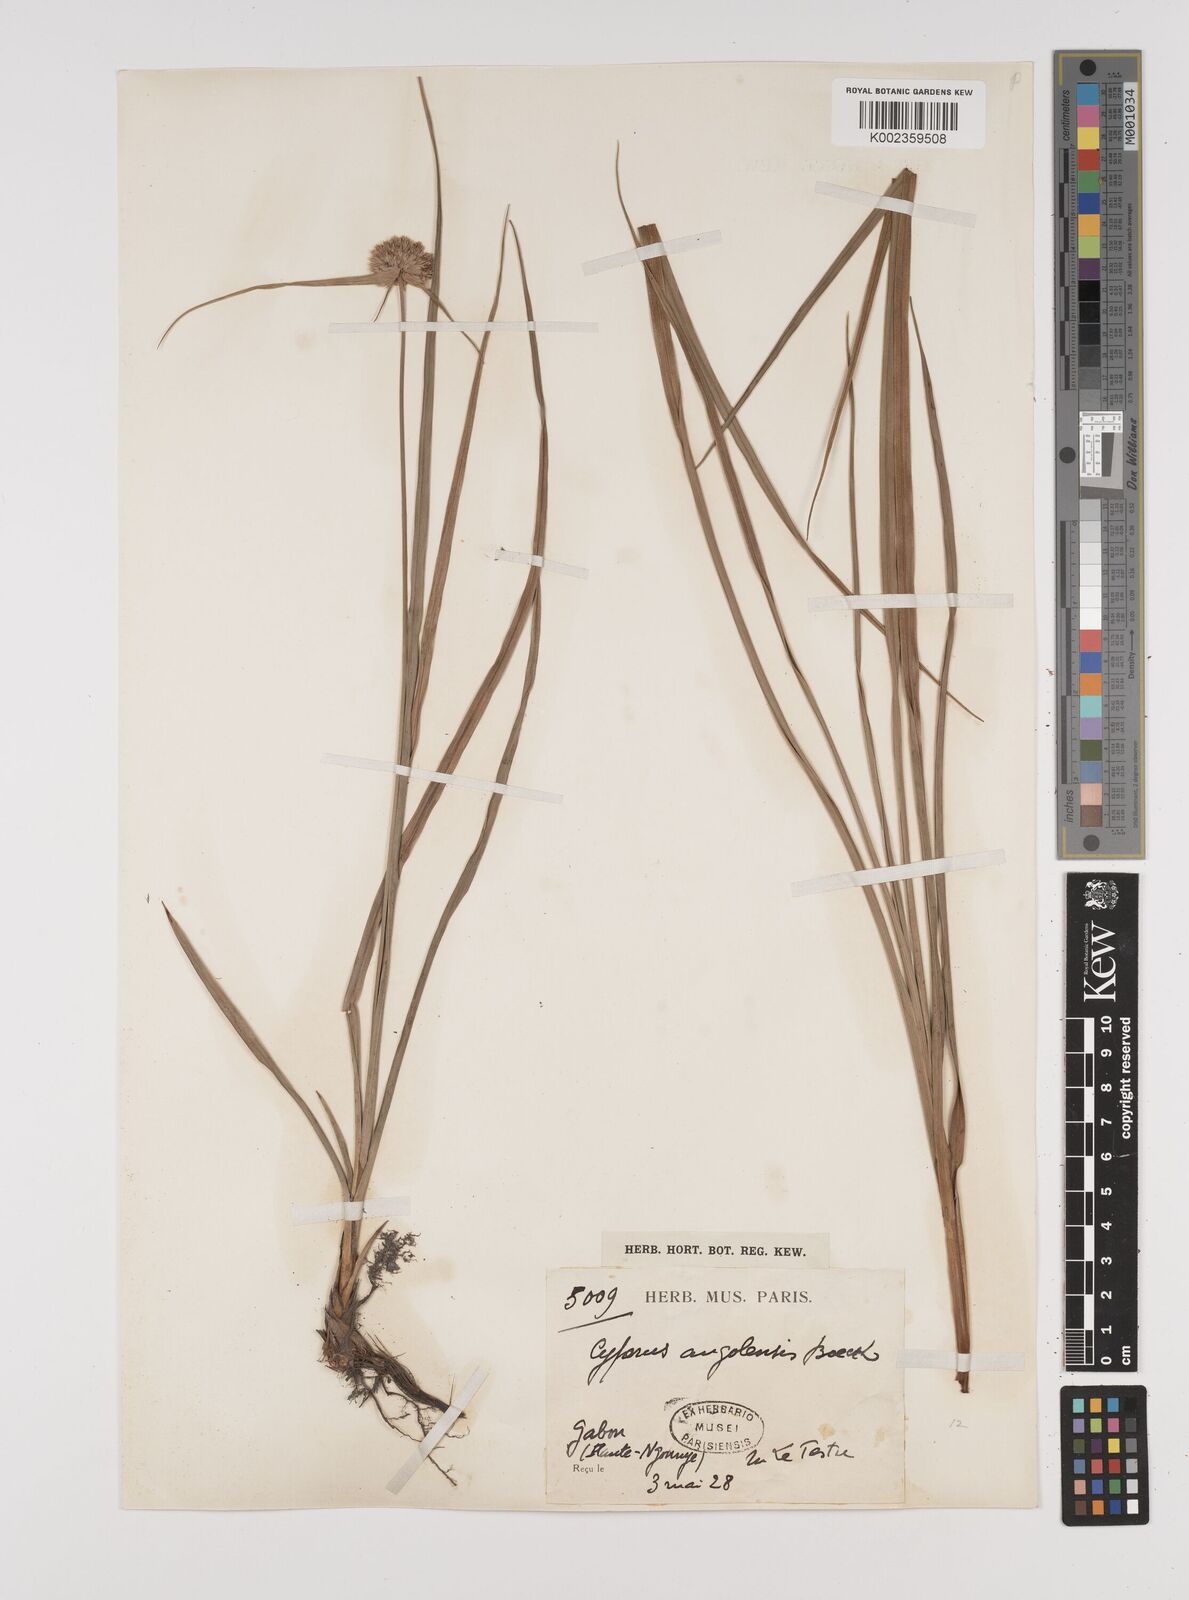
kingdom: Plantae
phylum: Tracheophyta
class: Liliopsida
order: Poales
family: Cyperaceae
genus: Cyperus
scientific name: Cyperus angolensis
